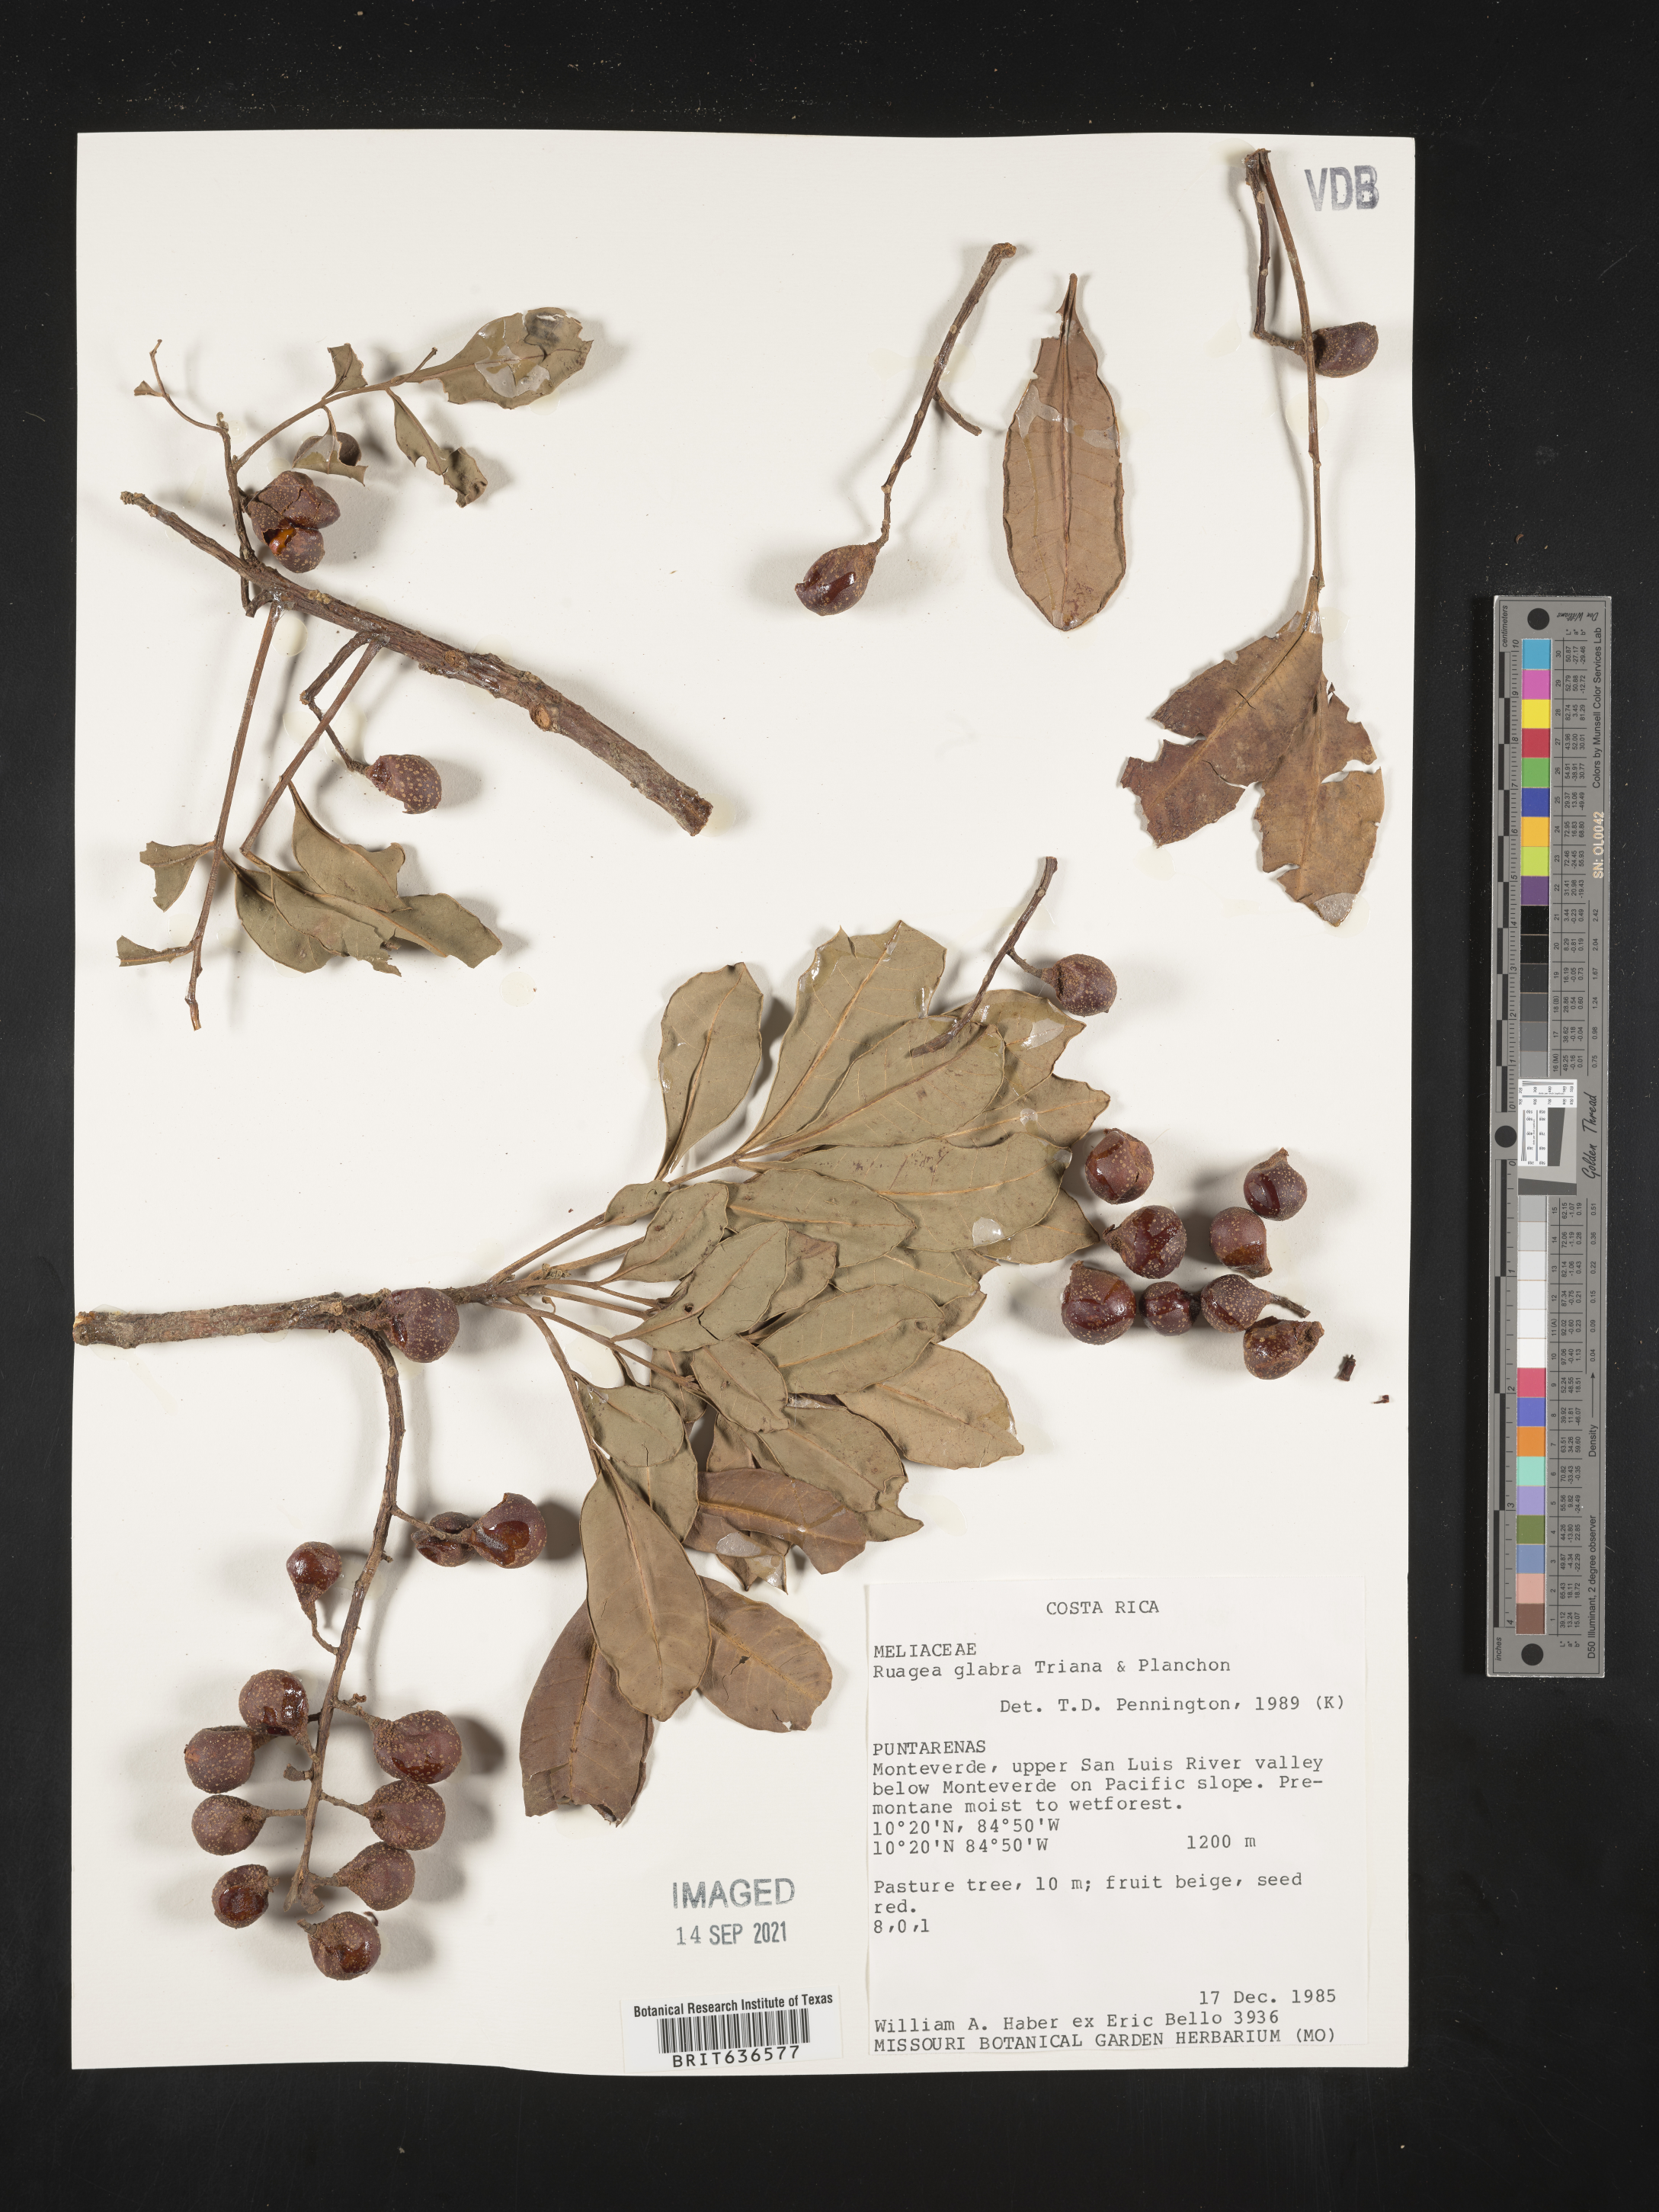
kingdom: Plantae
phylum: Tracheophyta
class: Magnoliopsida
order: Sapindales
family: Meliaceae
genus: Ruagea
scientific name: Ruagea
